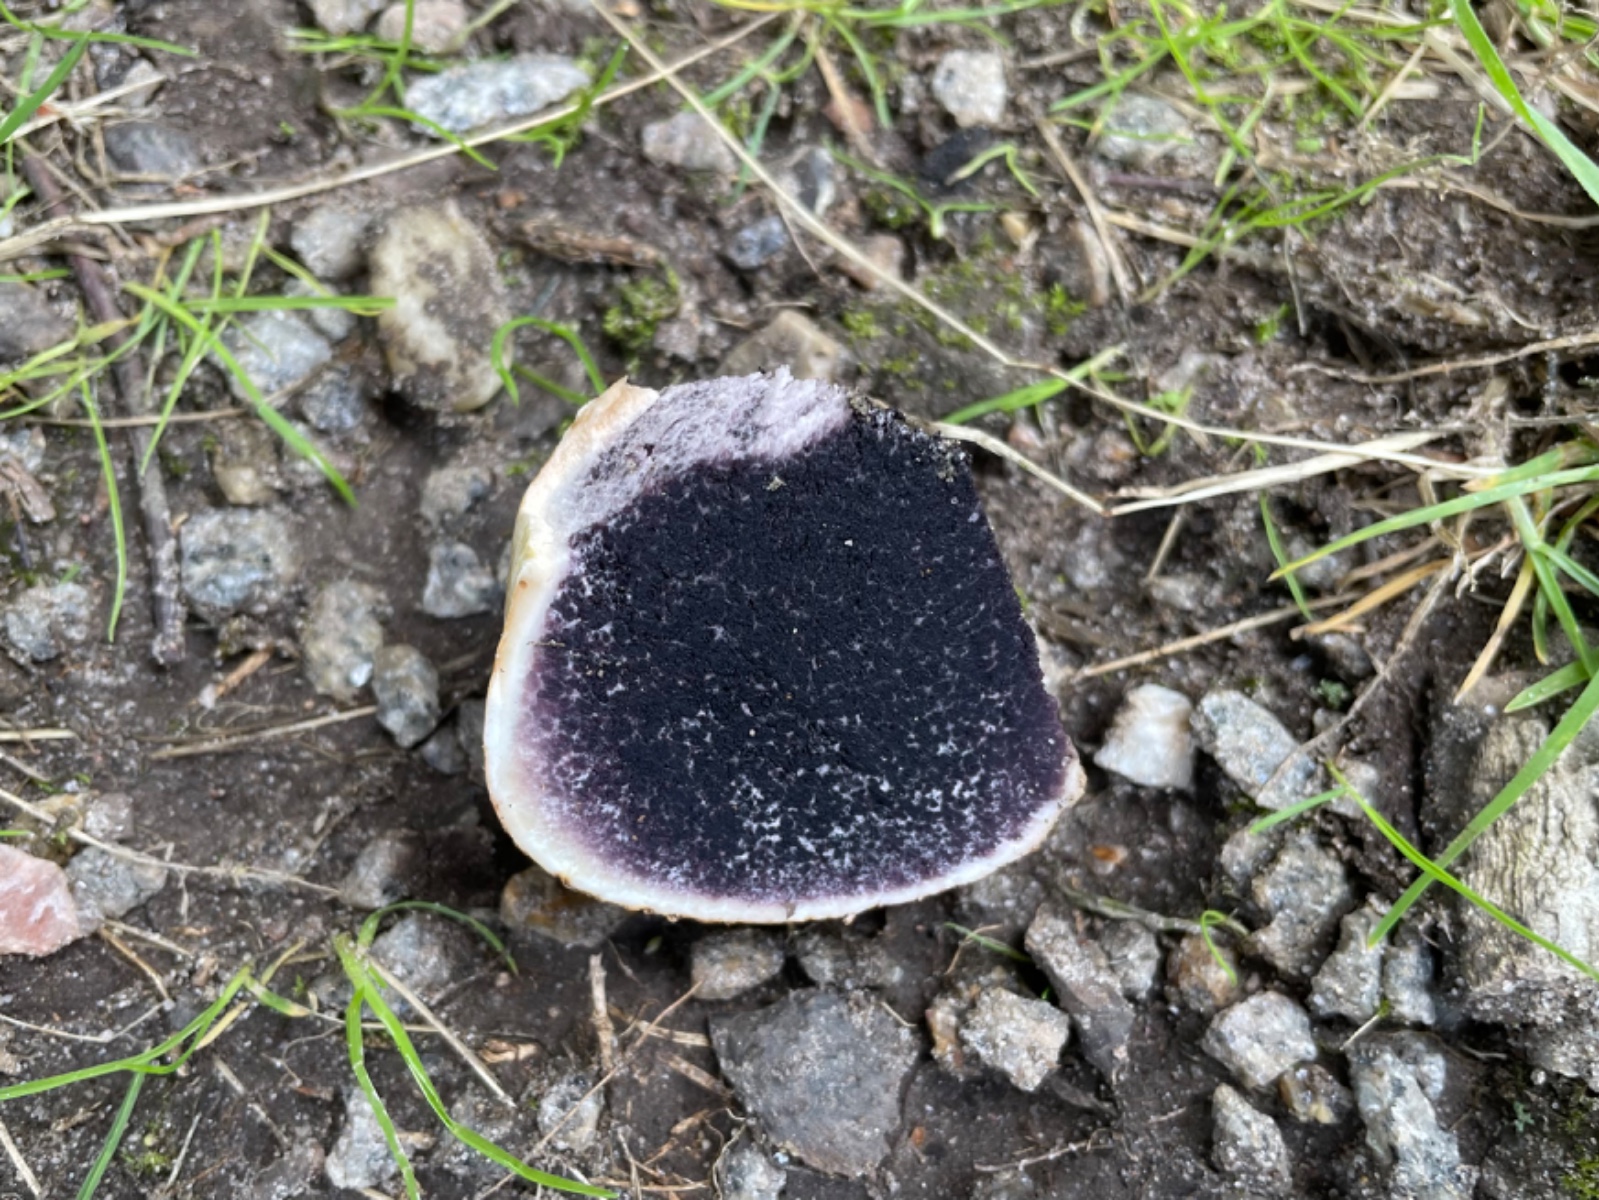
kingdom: Fungi
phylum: Basidiomycota
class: Agaricomycetes
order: Boletales
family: Sclerodermataceae
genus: Scleroderma
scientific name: Scleroderma bovista
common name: bovist-bruskbold
